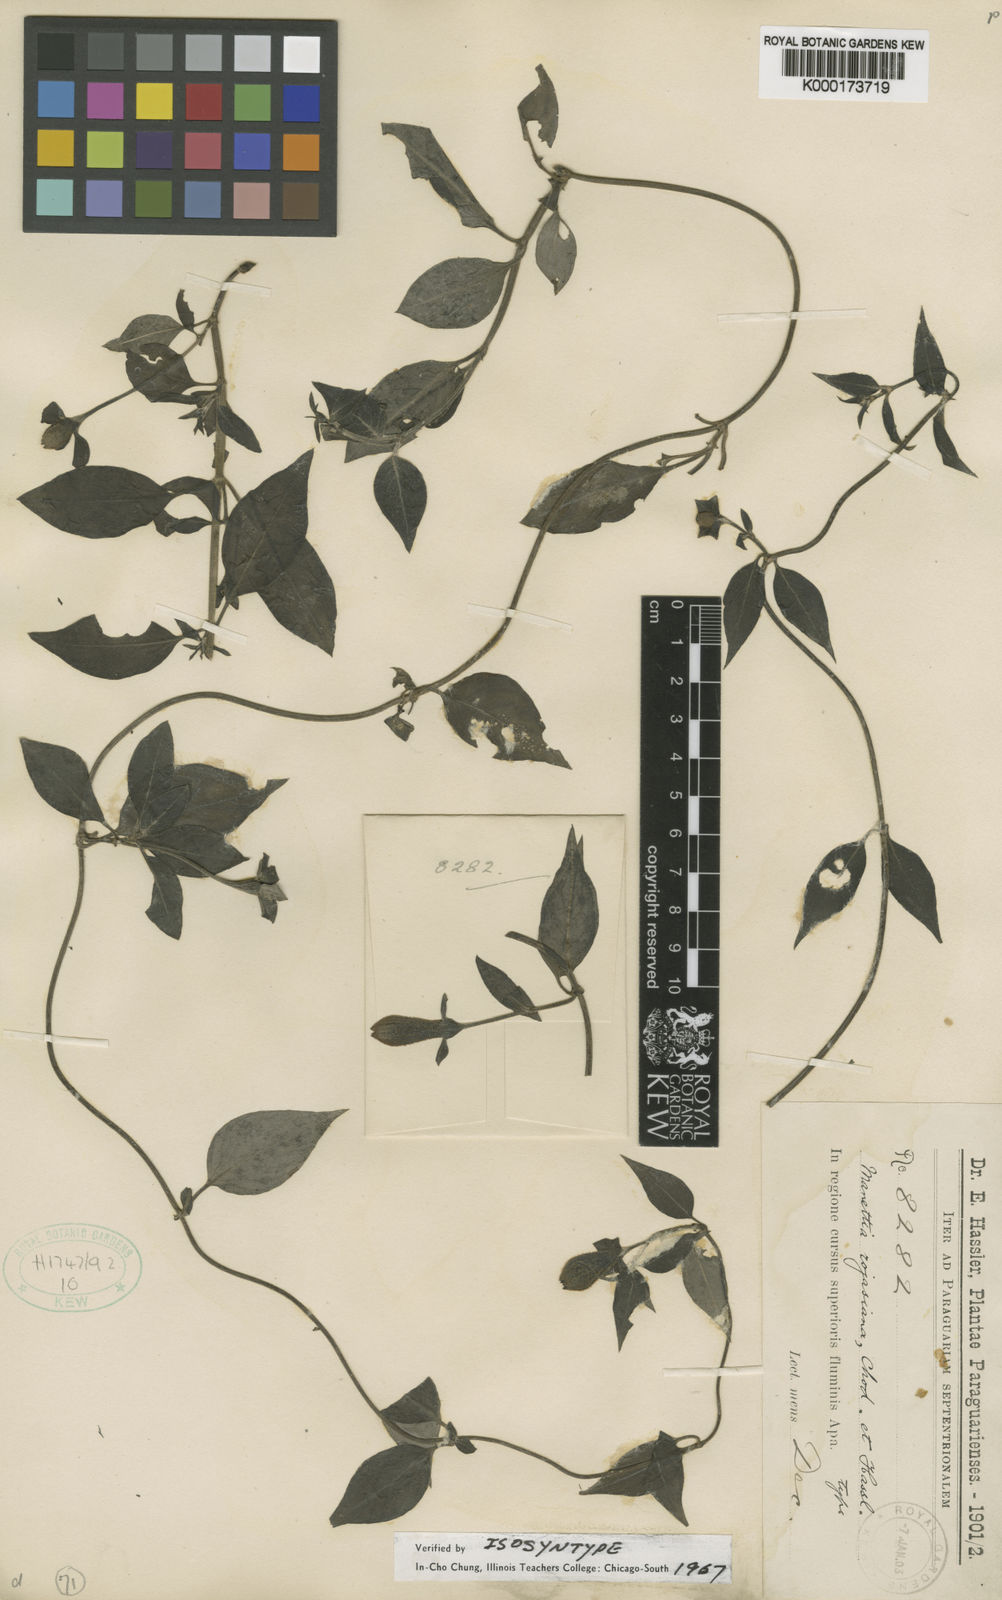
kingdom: Plantae
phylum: Tracheophyta
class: Magnoliopsida
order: Gentianales
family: Rubiaceae
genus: Manettia
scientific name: Manettia rojasiana
